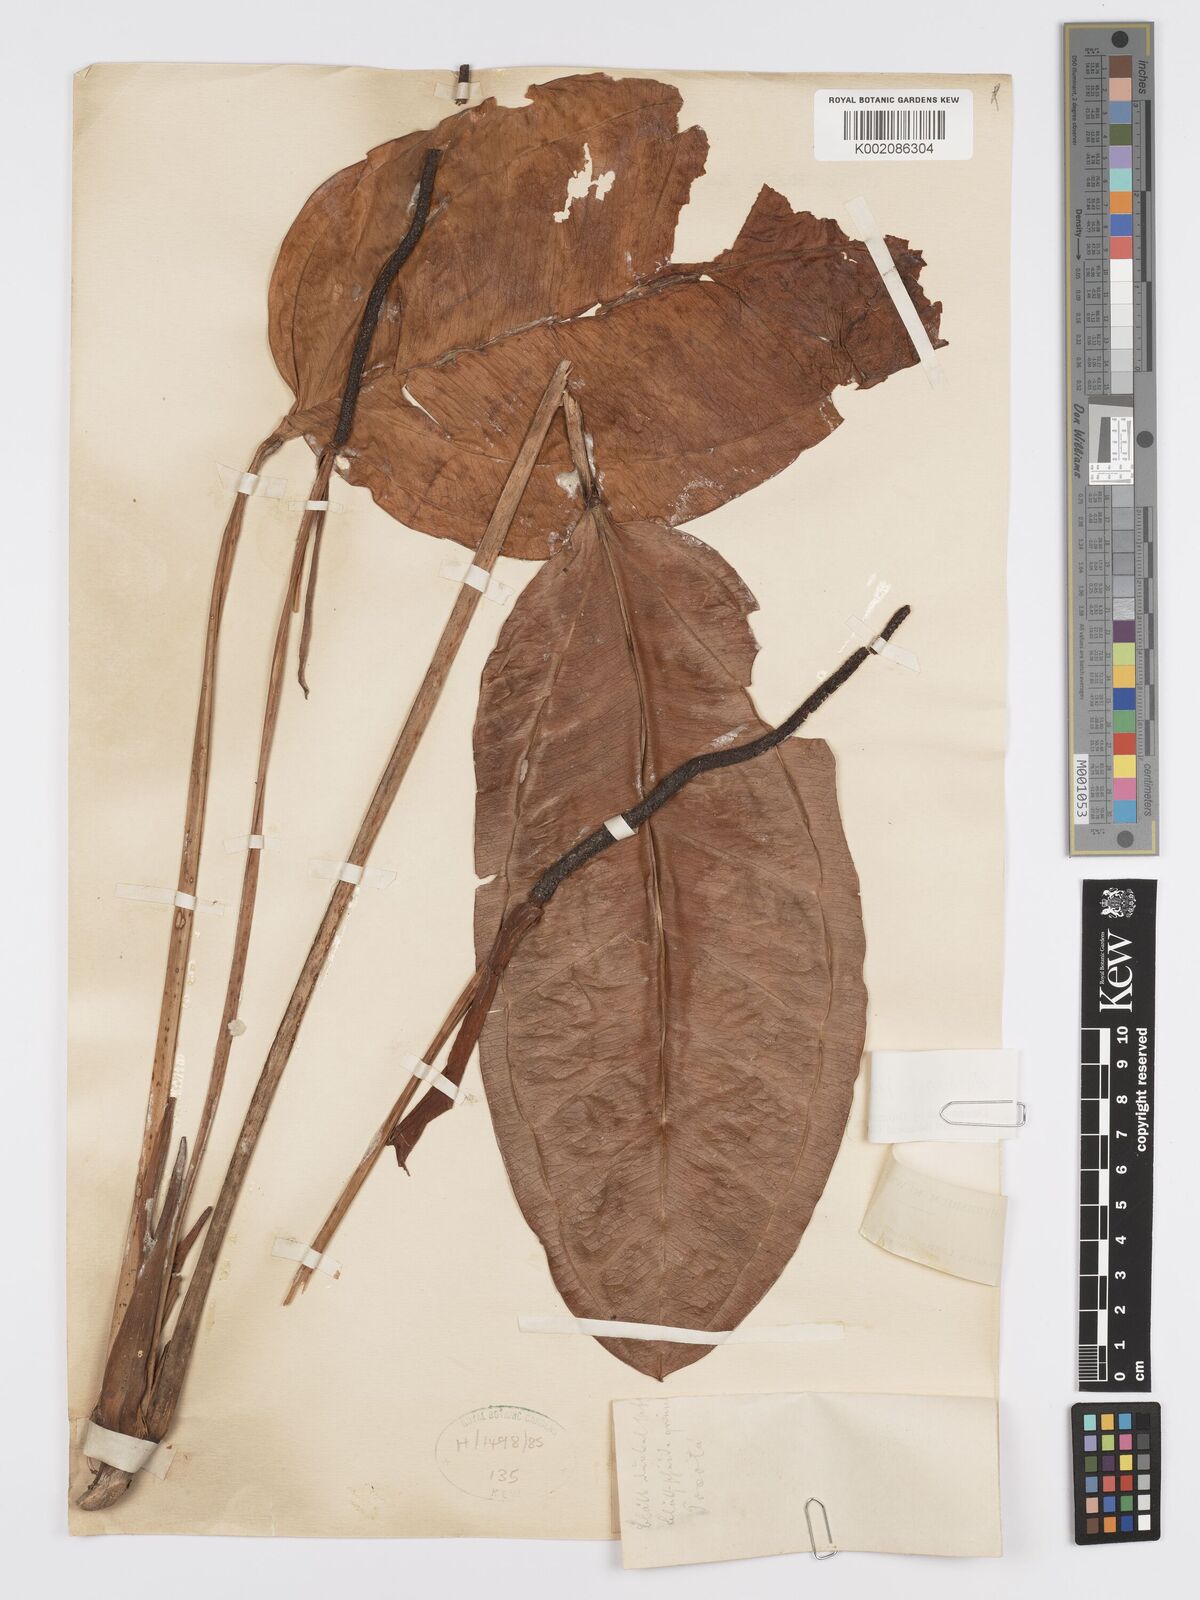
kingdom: Plantae
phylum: Tracheophyta
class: Liliopsida
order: Alismatales
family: Araceae
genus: Anthurium
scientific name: Anthurium jesusii
